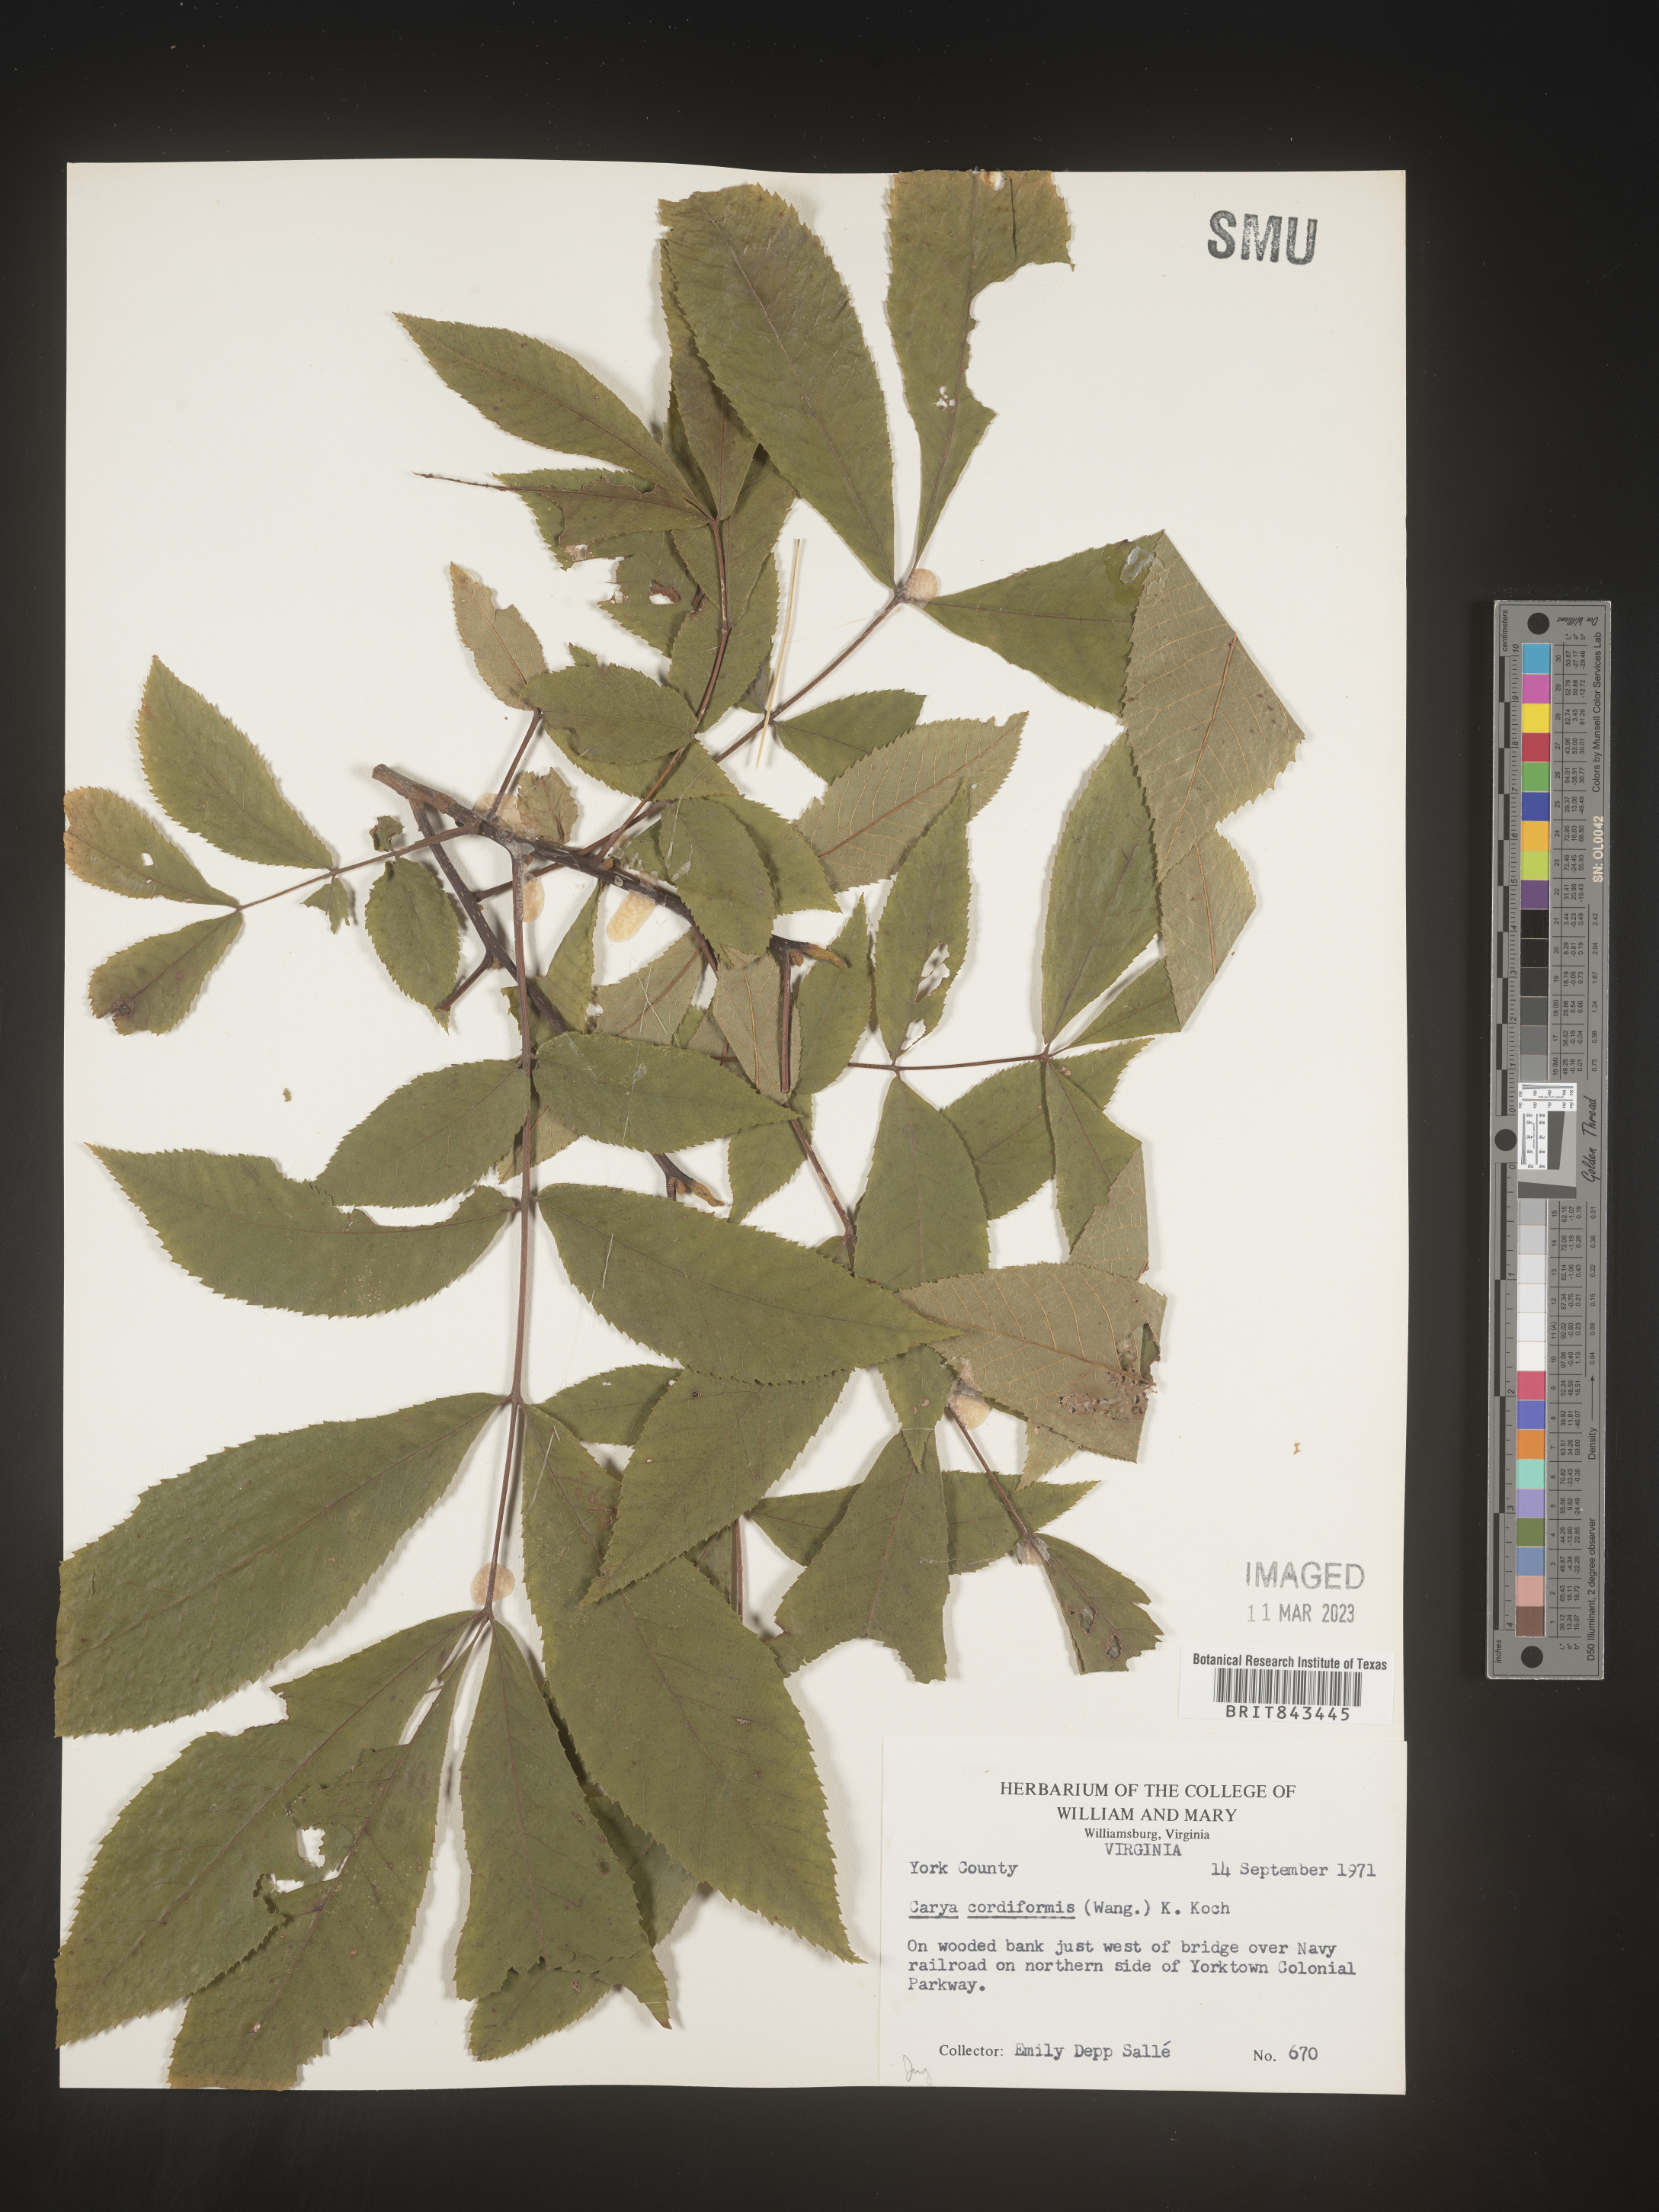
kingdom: Plantae
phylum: Tracheophyta
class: Magnoliopsida
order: Fagales
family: Juglandaceae
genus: Carya
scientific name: Carya cordiformis
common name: Bitternut hickory
